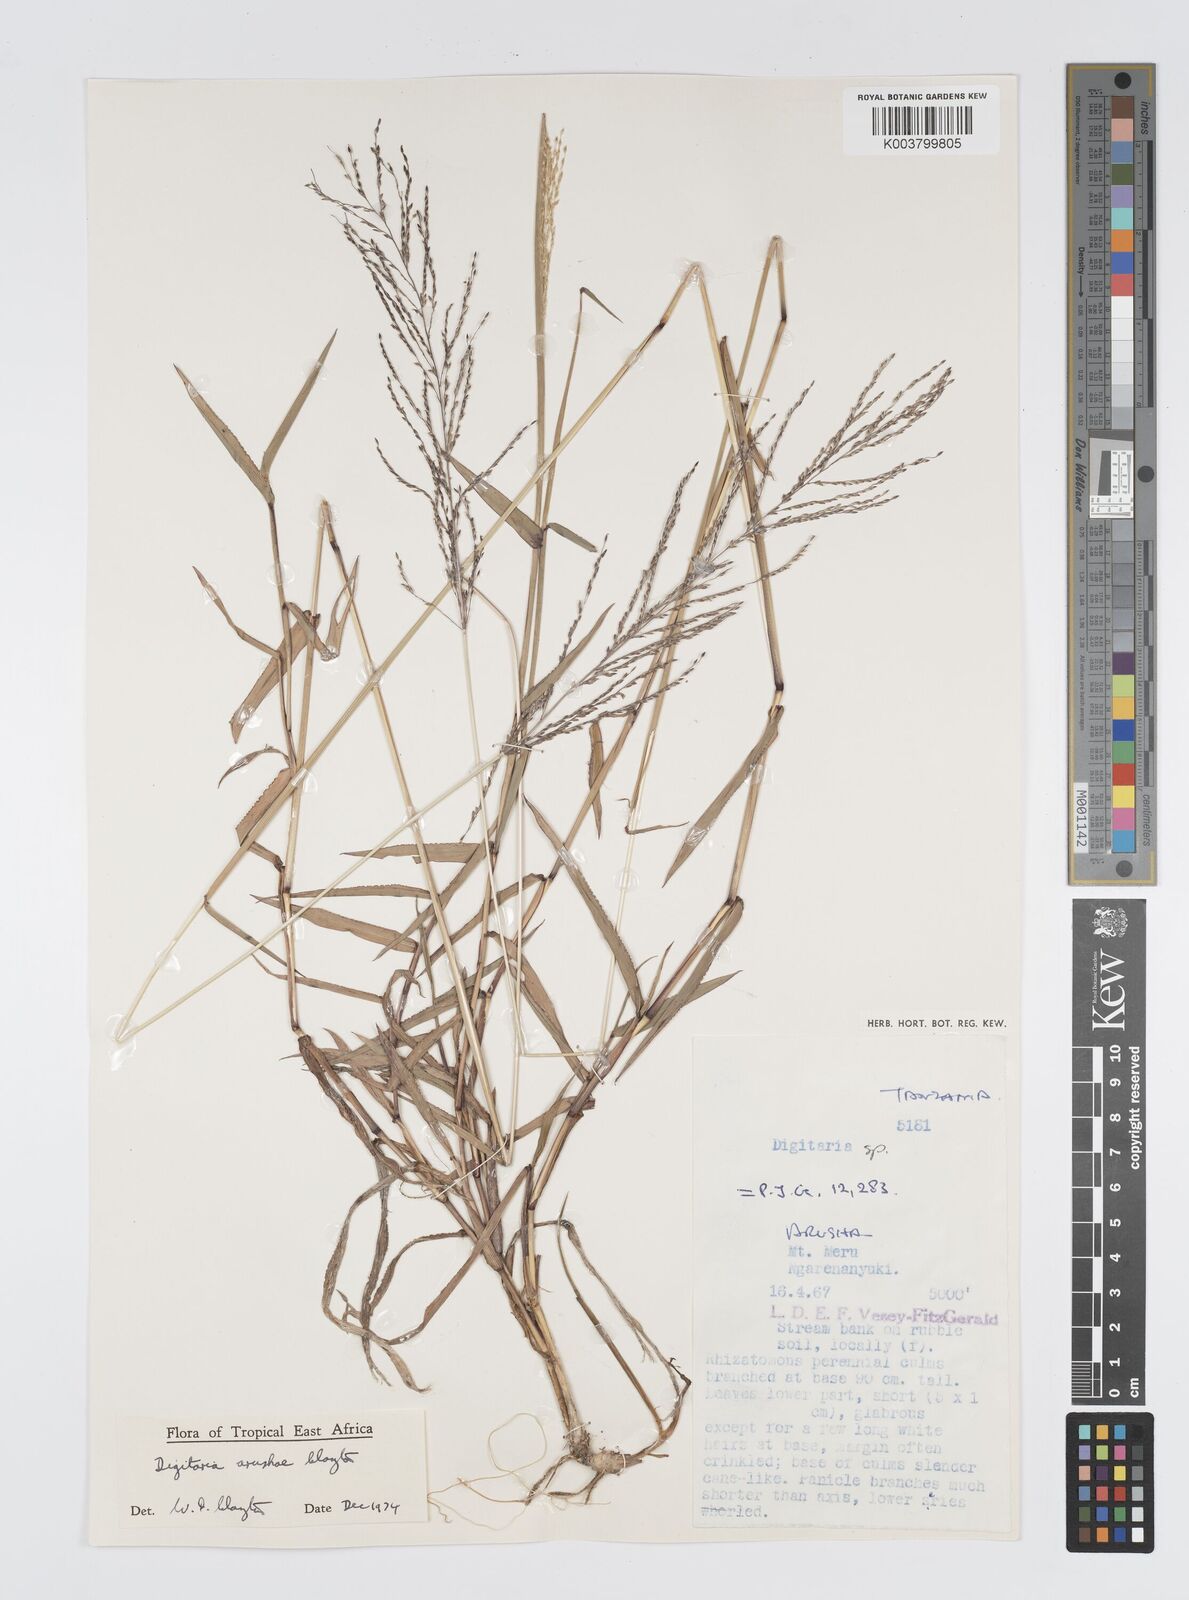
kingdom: Plantae
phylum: Tracheophyta
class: Liliopsida
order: Poales
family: Poaceae
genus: Digitaria
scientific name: Digitaria arushae
